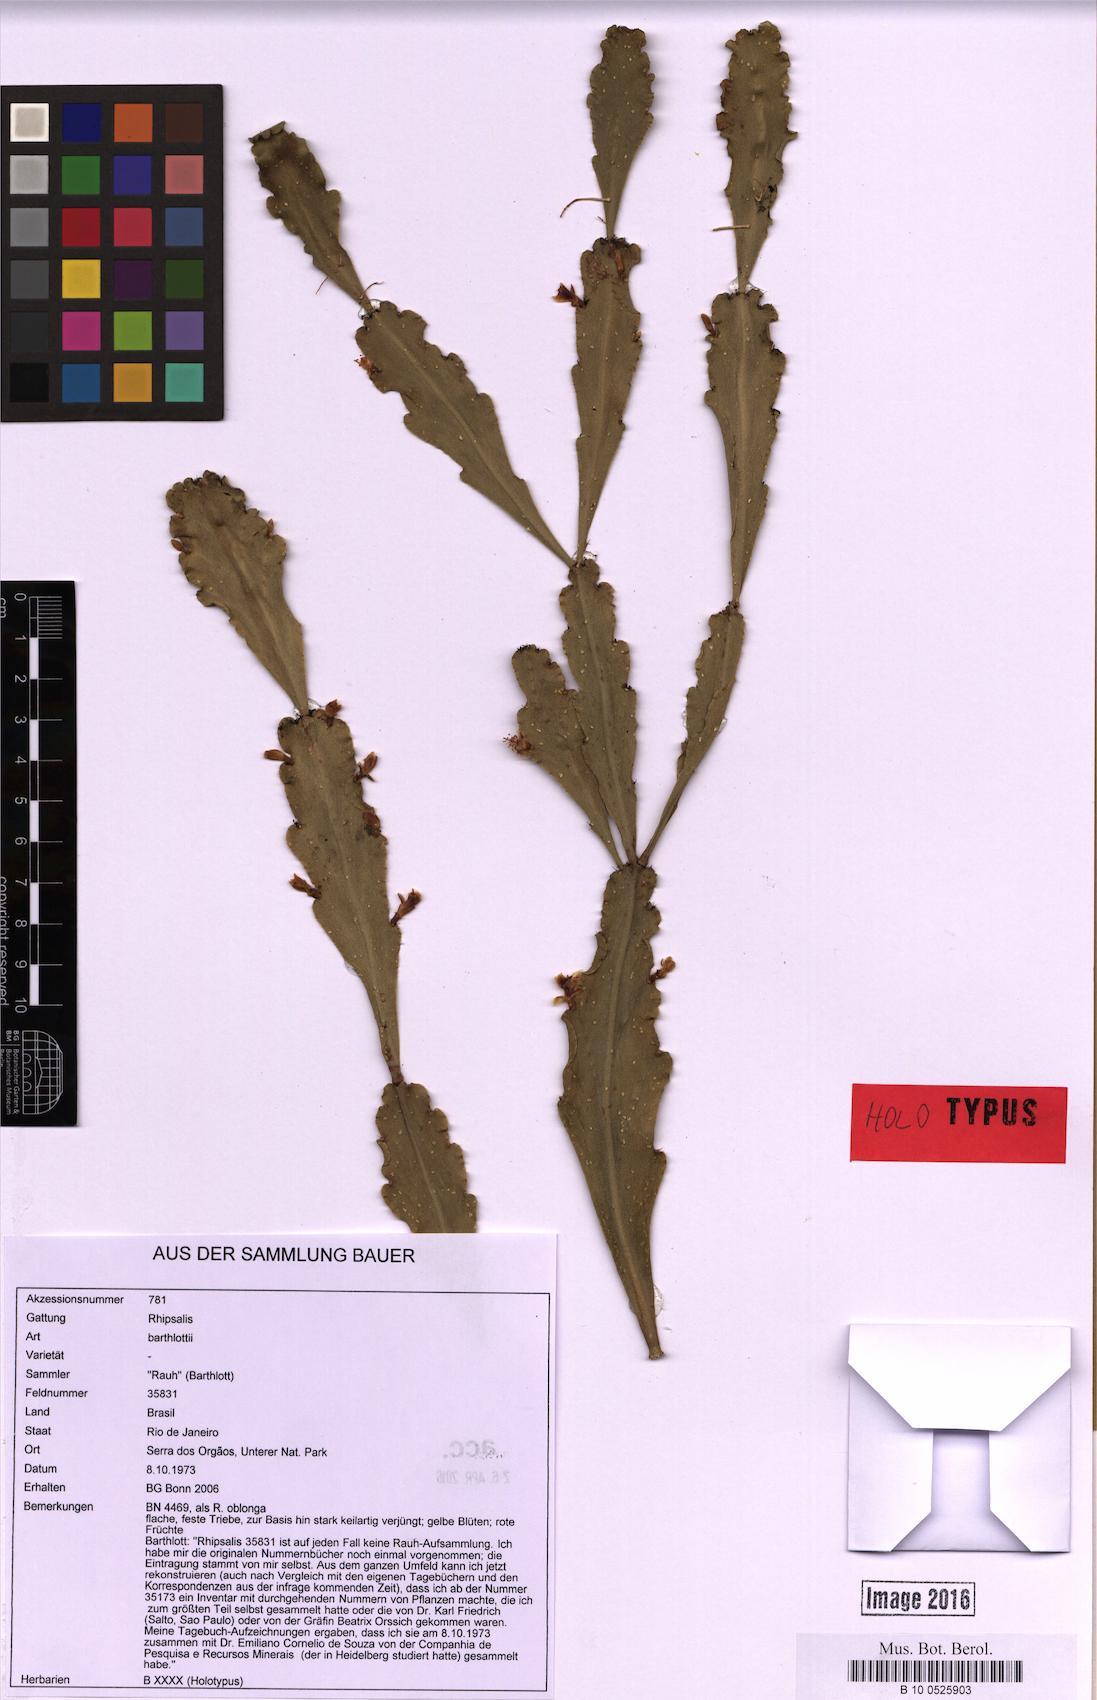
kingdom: Plantae
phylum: Tracheophyta
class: Magnoliopsida
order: Caryophyllales
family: Cactaceae
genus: Rhipsalis
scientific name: Rhipsalis barthlottii
